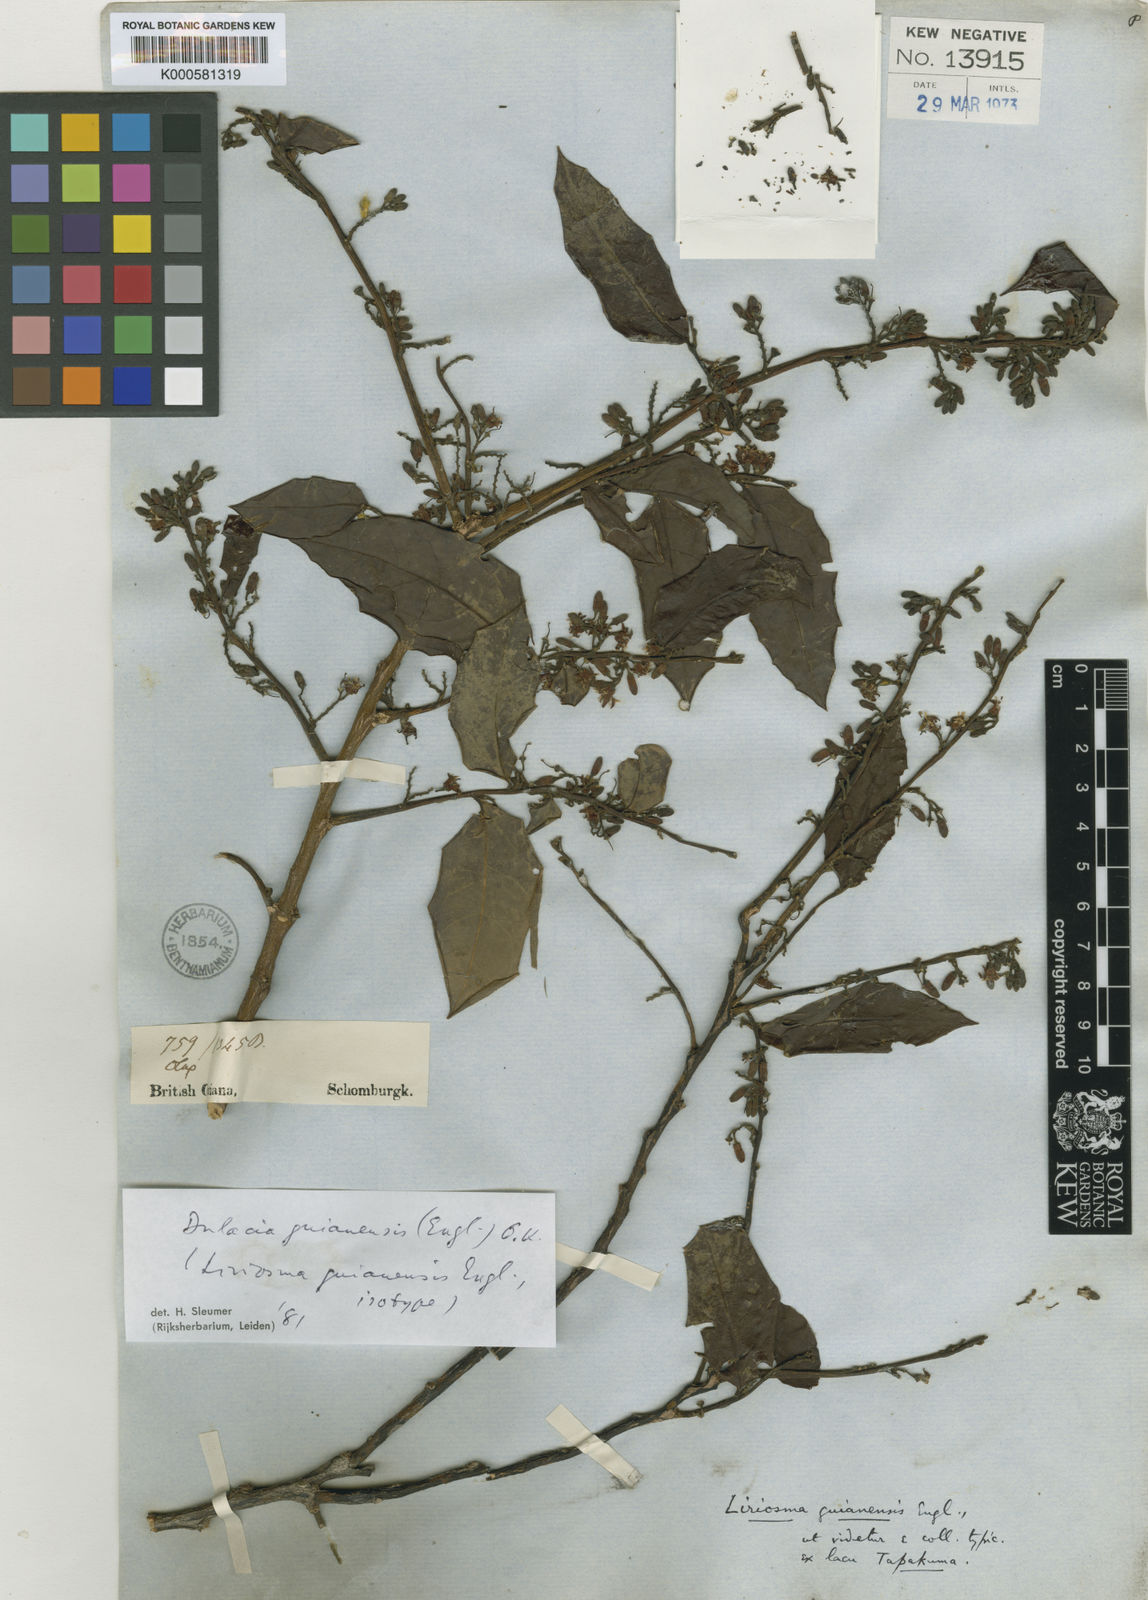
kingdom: Plantae
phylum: Tracheophyta
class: Magnoliopsida
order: Santalales
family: Olacaceae
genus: Dulacia
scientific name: Dulacia guianensis
